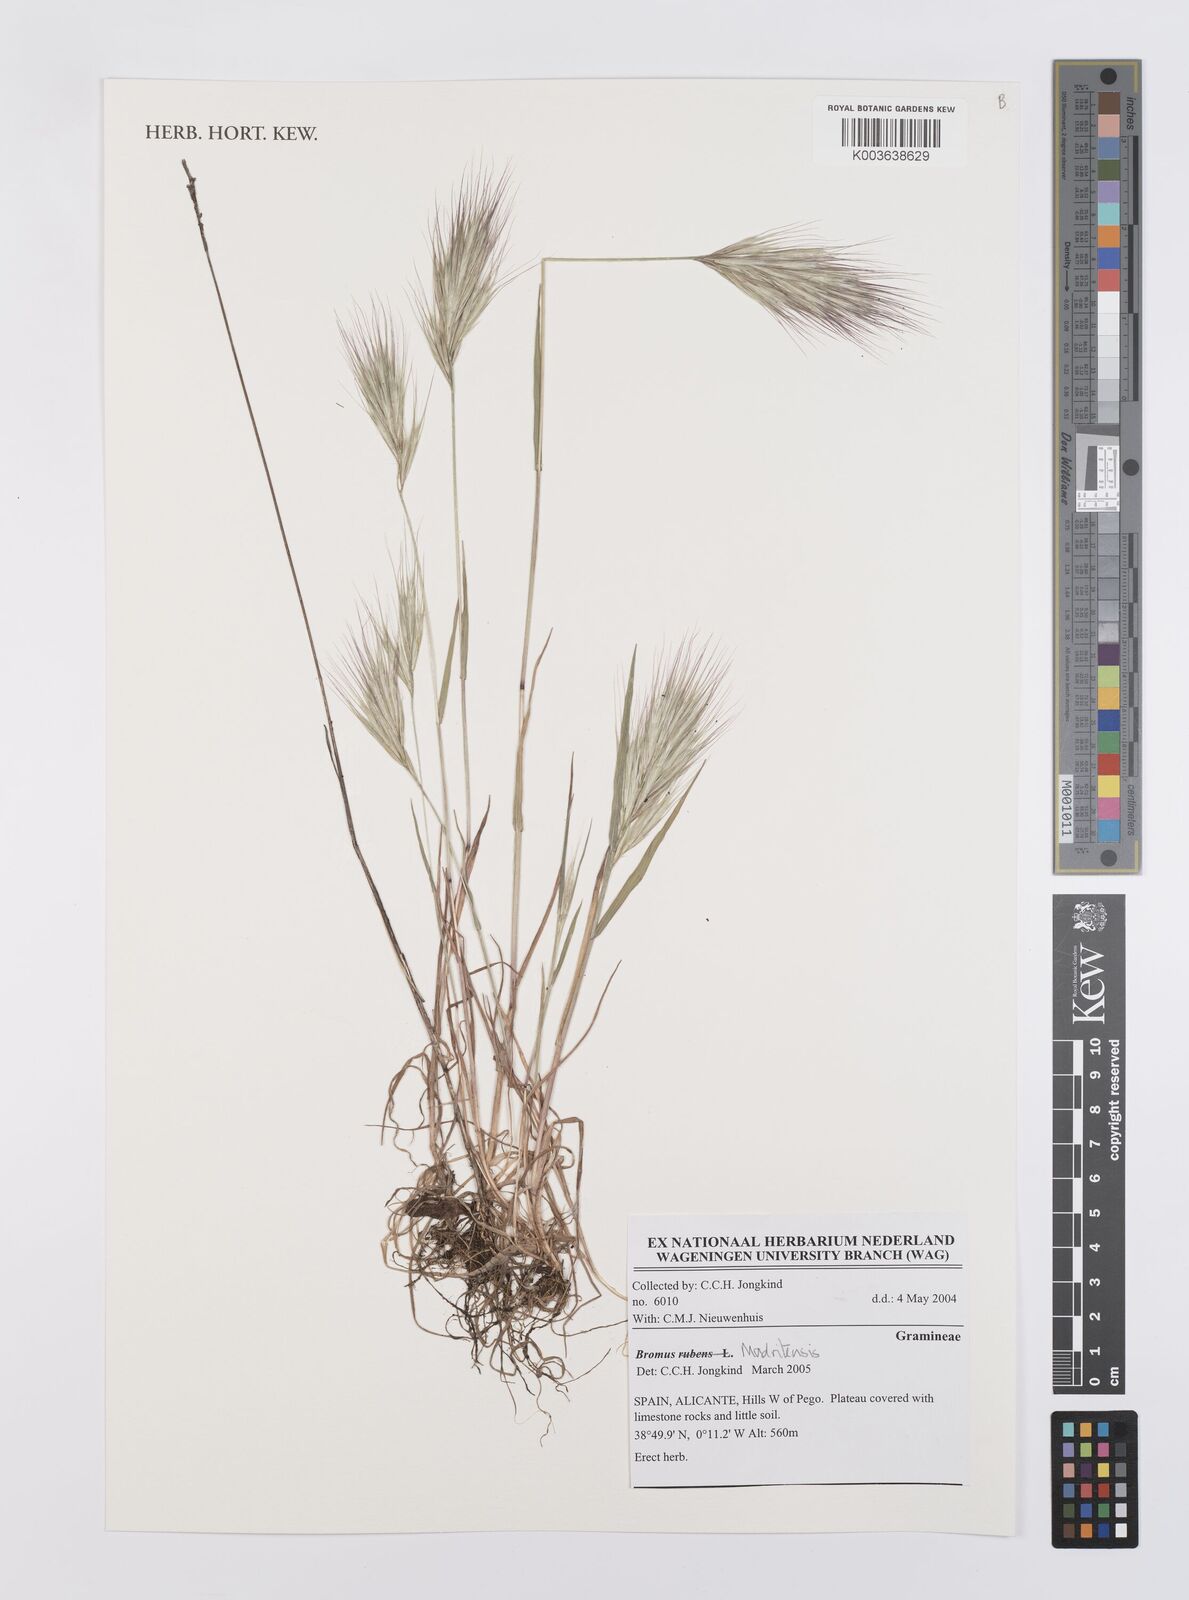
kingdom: Plantae
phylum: Tracheophyta
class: Liliopsida
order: Poales
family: Poaceae
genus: Bromus
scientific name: Bromus madritensis
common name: Compact brome
